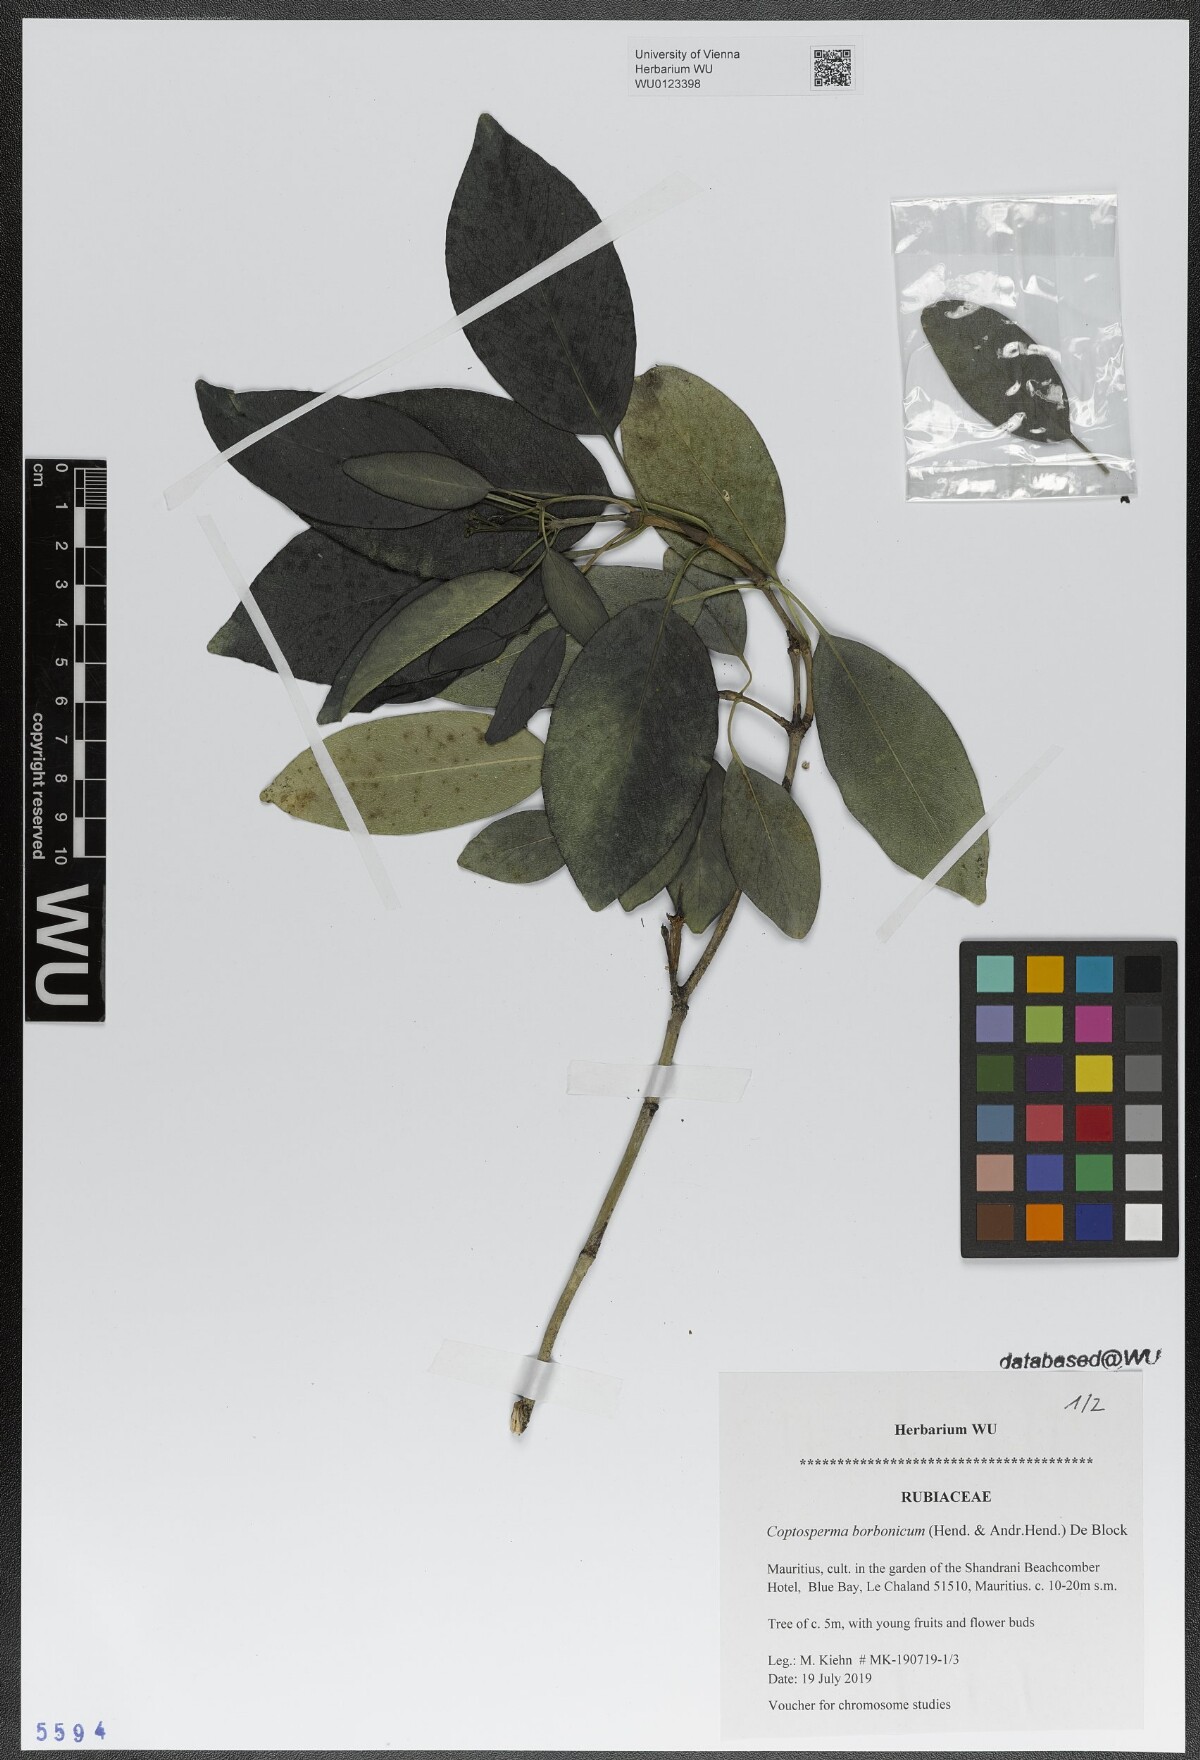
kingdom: Plantae
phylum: Tracheophyta
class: Magnoliopsida
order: Gentianales
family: Rubiaceae
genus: Coptosperma
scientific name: Coptosperma borbonicum
